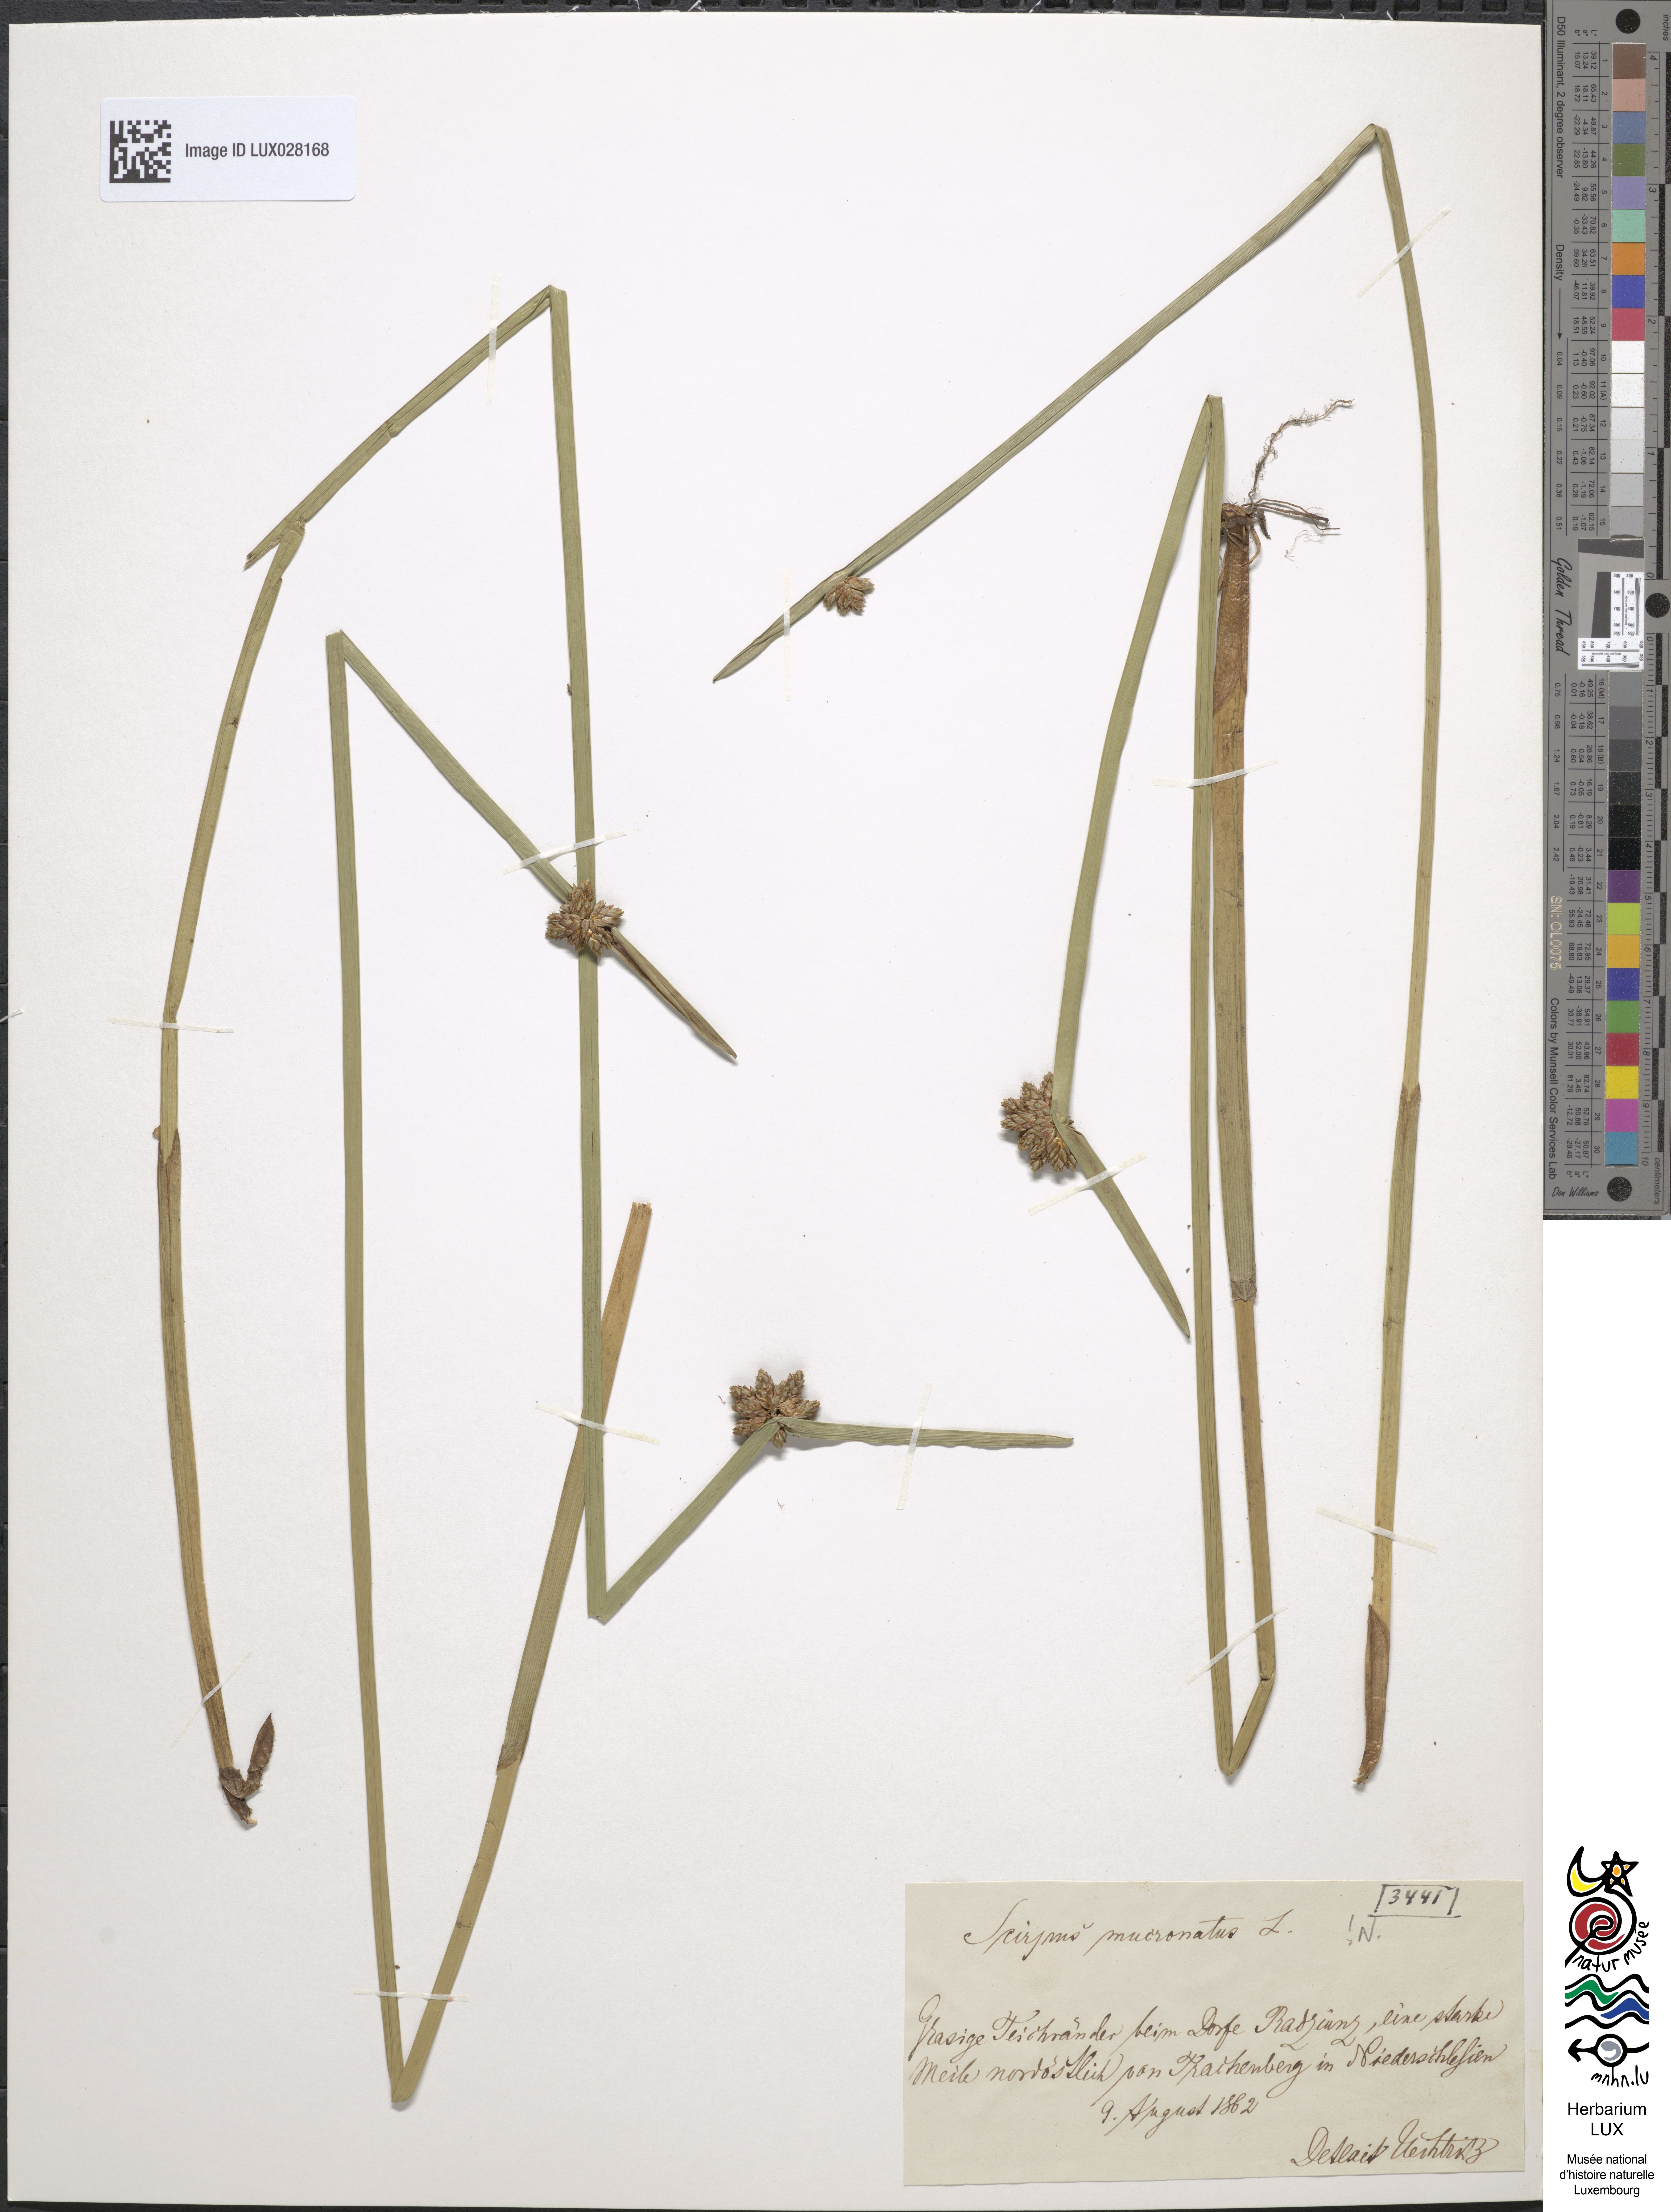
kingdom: Plantae
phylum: Tracheophyta
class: Liliopsida
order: Poales
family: Cyperaceae
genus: Schoenoplectiella
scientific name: Schoenoplectiella mucronata
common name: Bog bulrush
